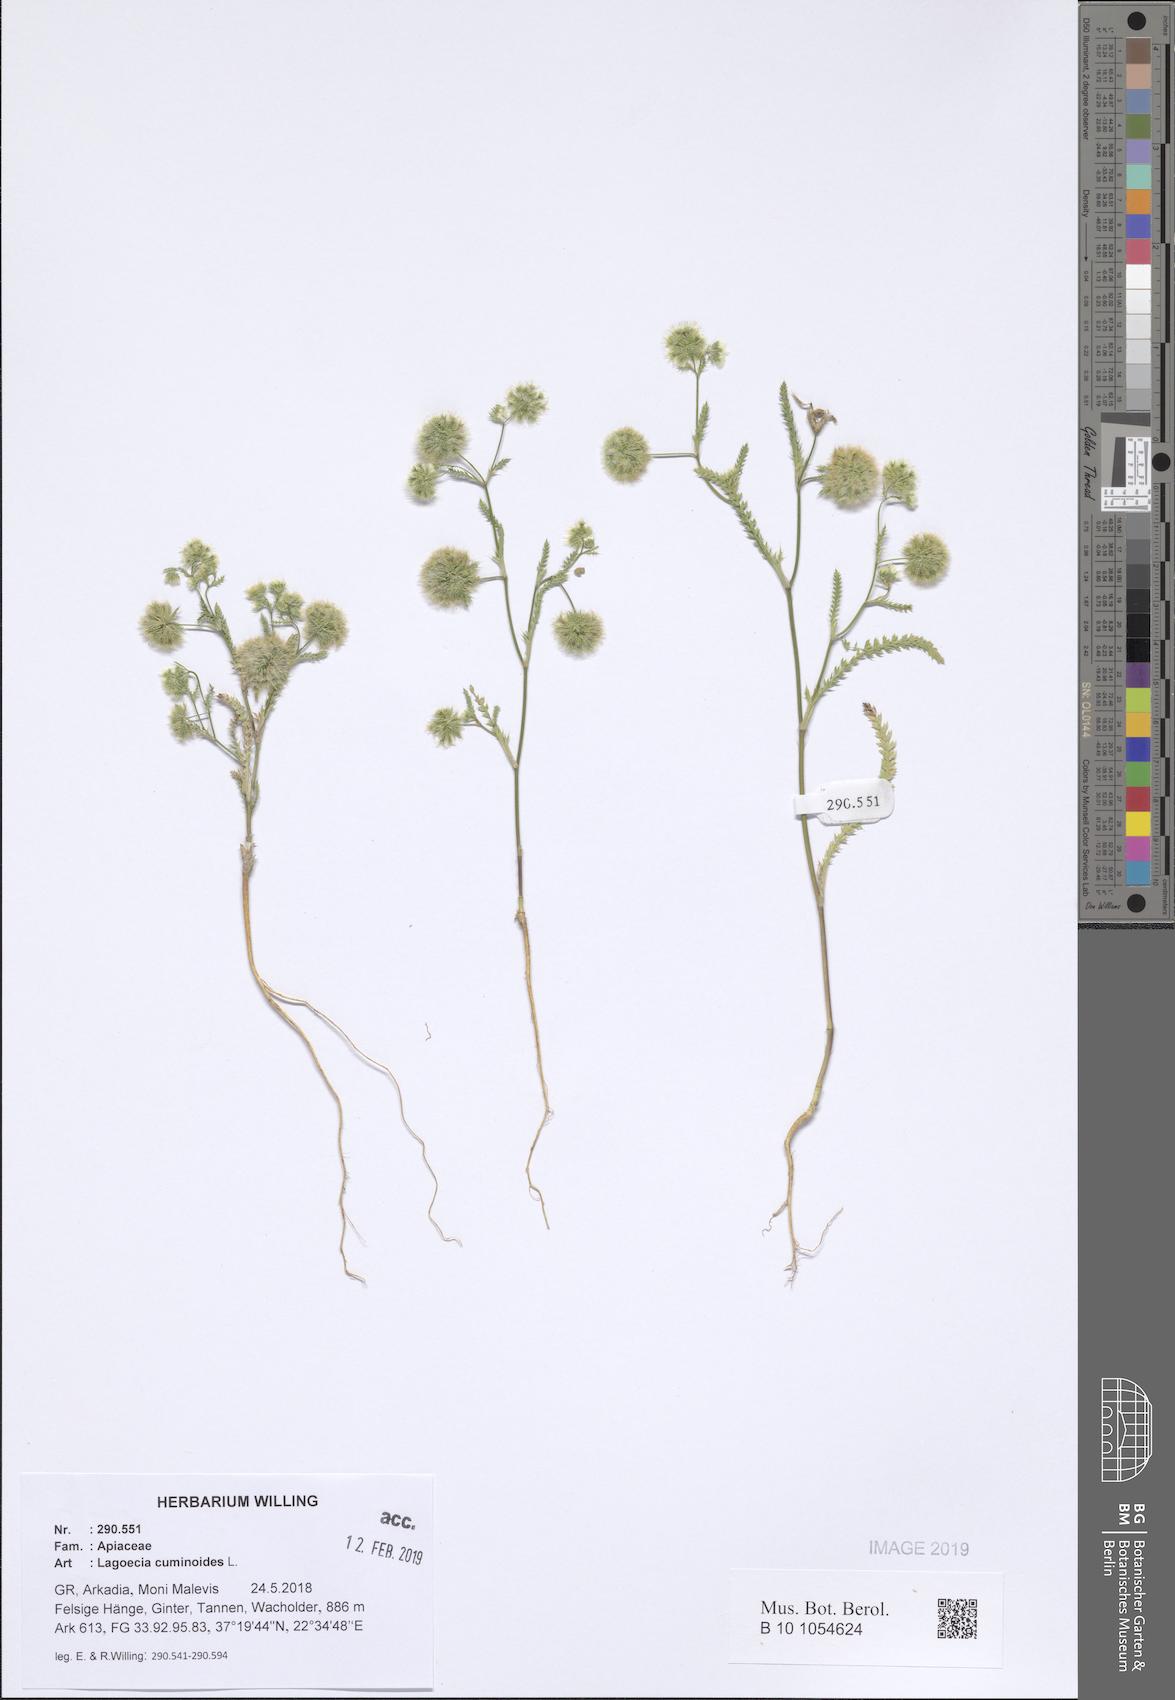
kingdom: Plantae
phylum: Tracheophyta
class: Magnoliopsida
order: Apiales
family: Apiaceae
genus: Lagoecia
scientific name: Lagoecia cuminoides
